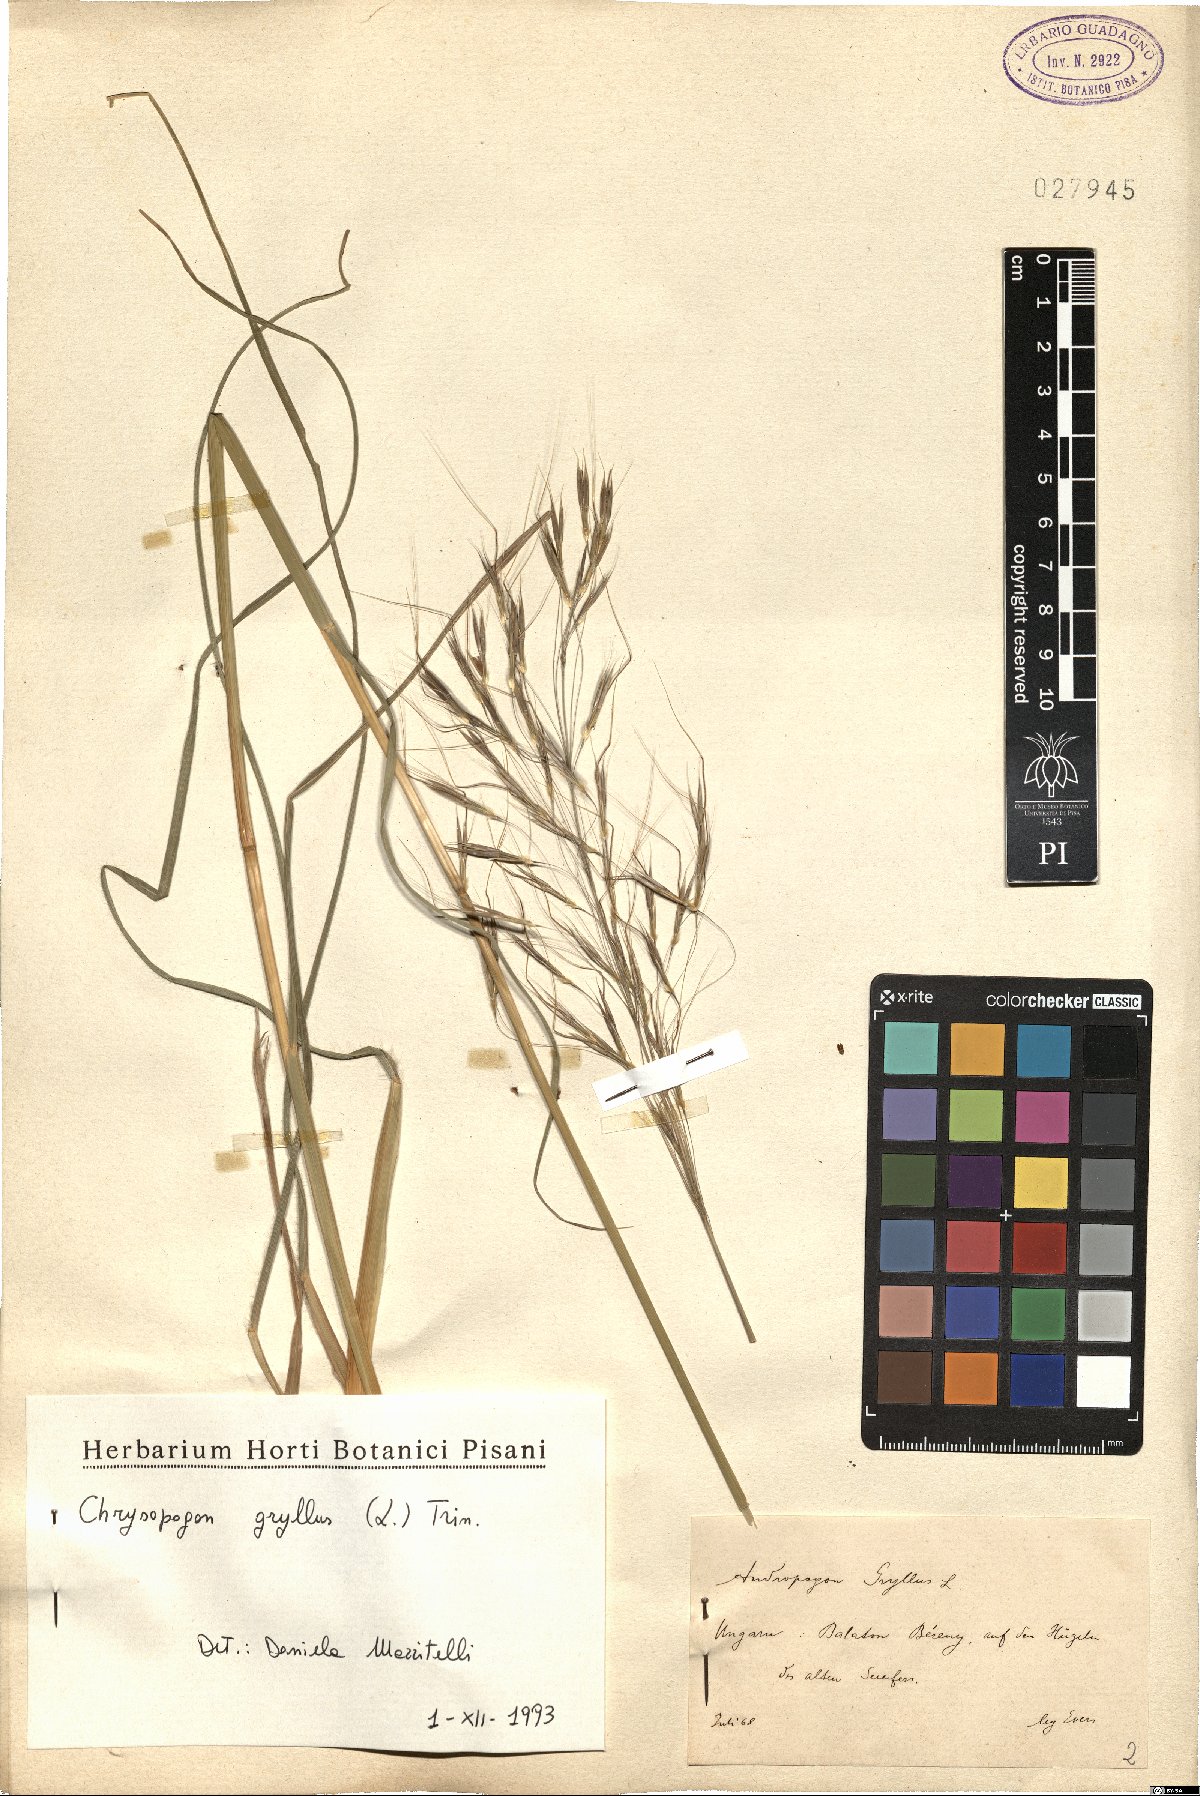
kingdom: Plantae
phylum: Tracheophyta
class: Liliopsida
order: Poales
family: Poaceae
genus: Chrysopogon
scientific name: Chrysopogon gryllus
